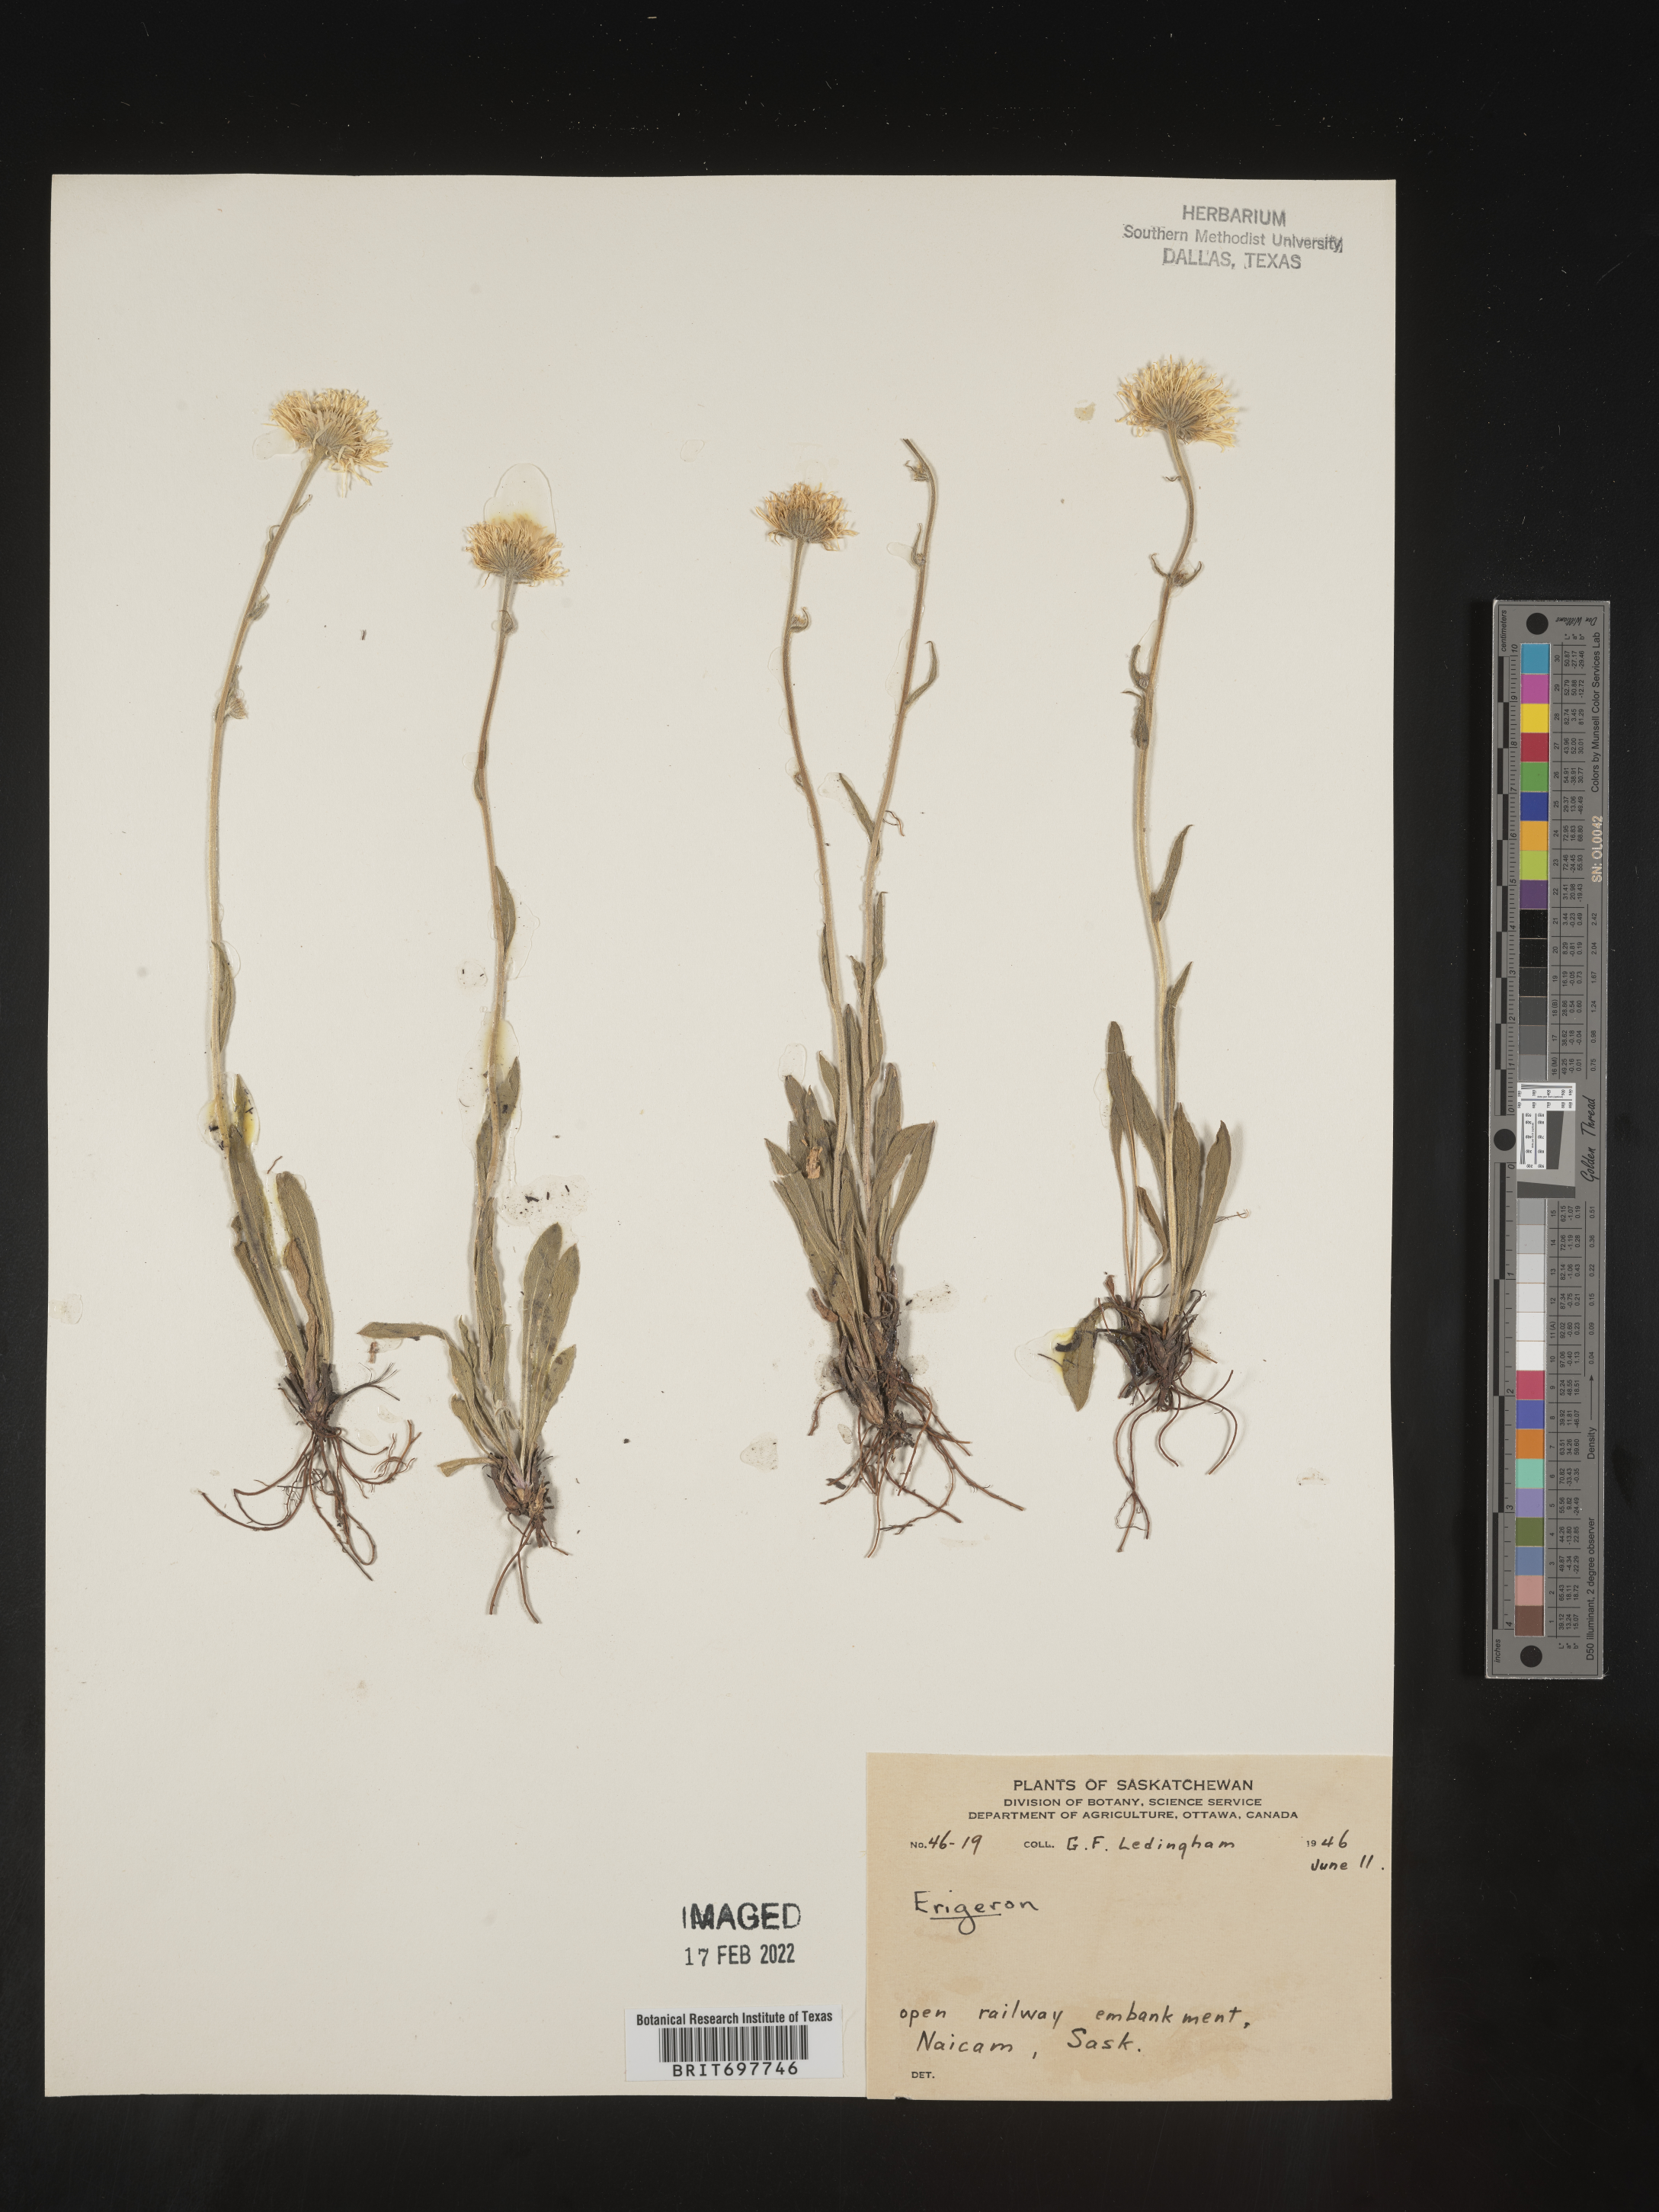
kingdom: Plantae
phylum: Tracheophyta
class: Magnoliopsida
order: Asterales
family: Asteraceae
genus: Erigeron
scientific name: Erigeron glabellus
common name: Smooth fleabane
